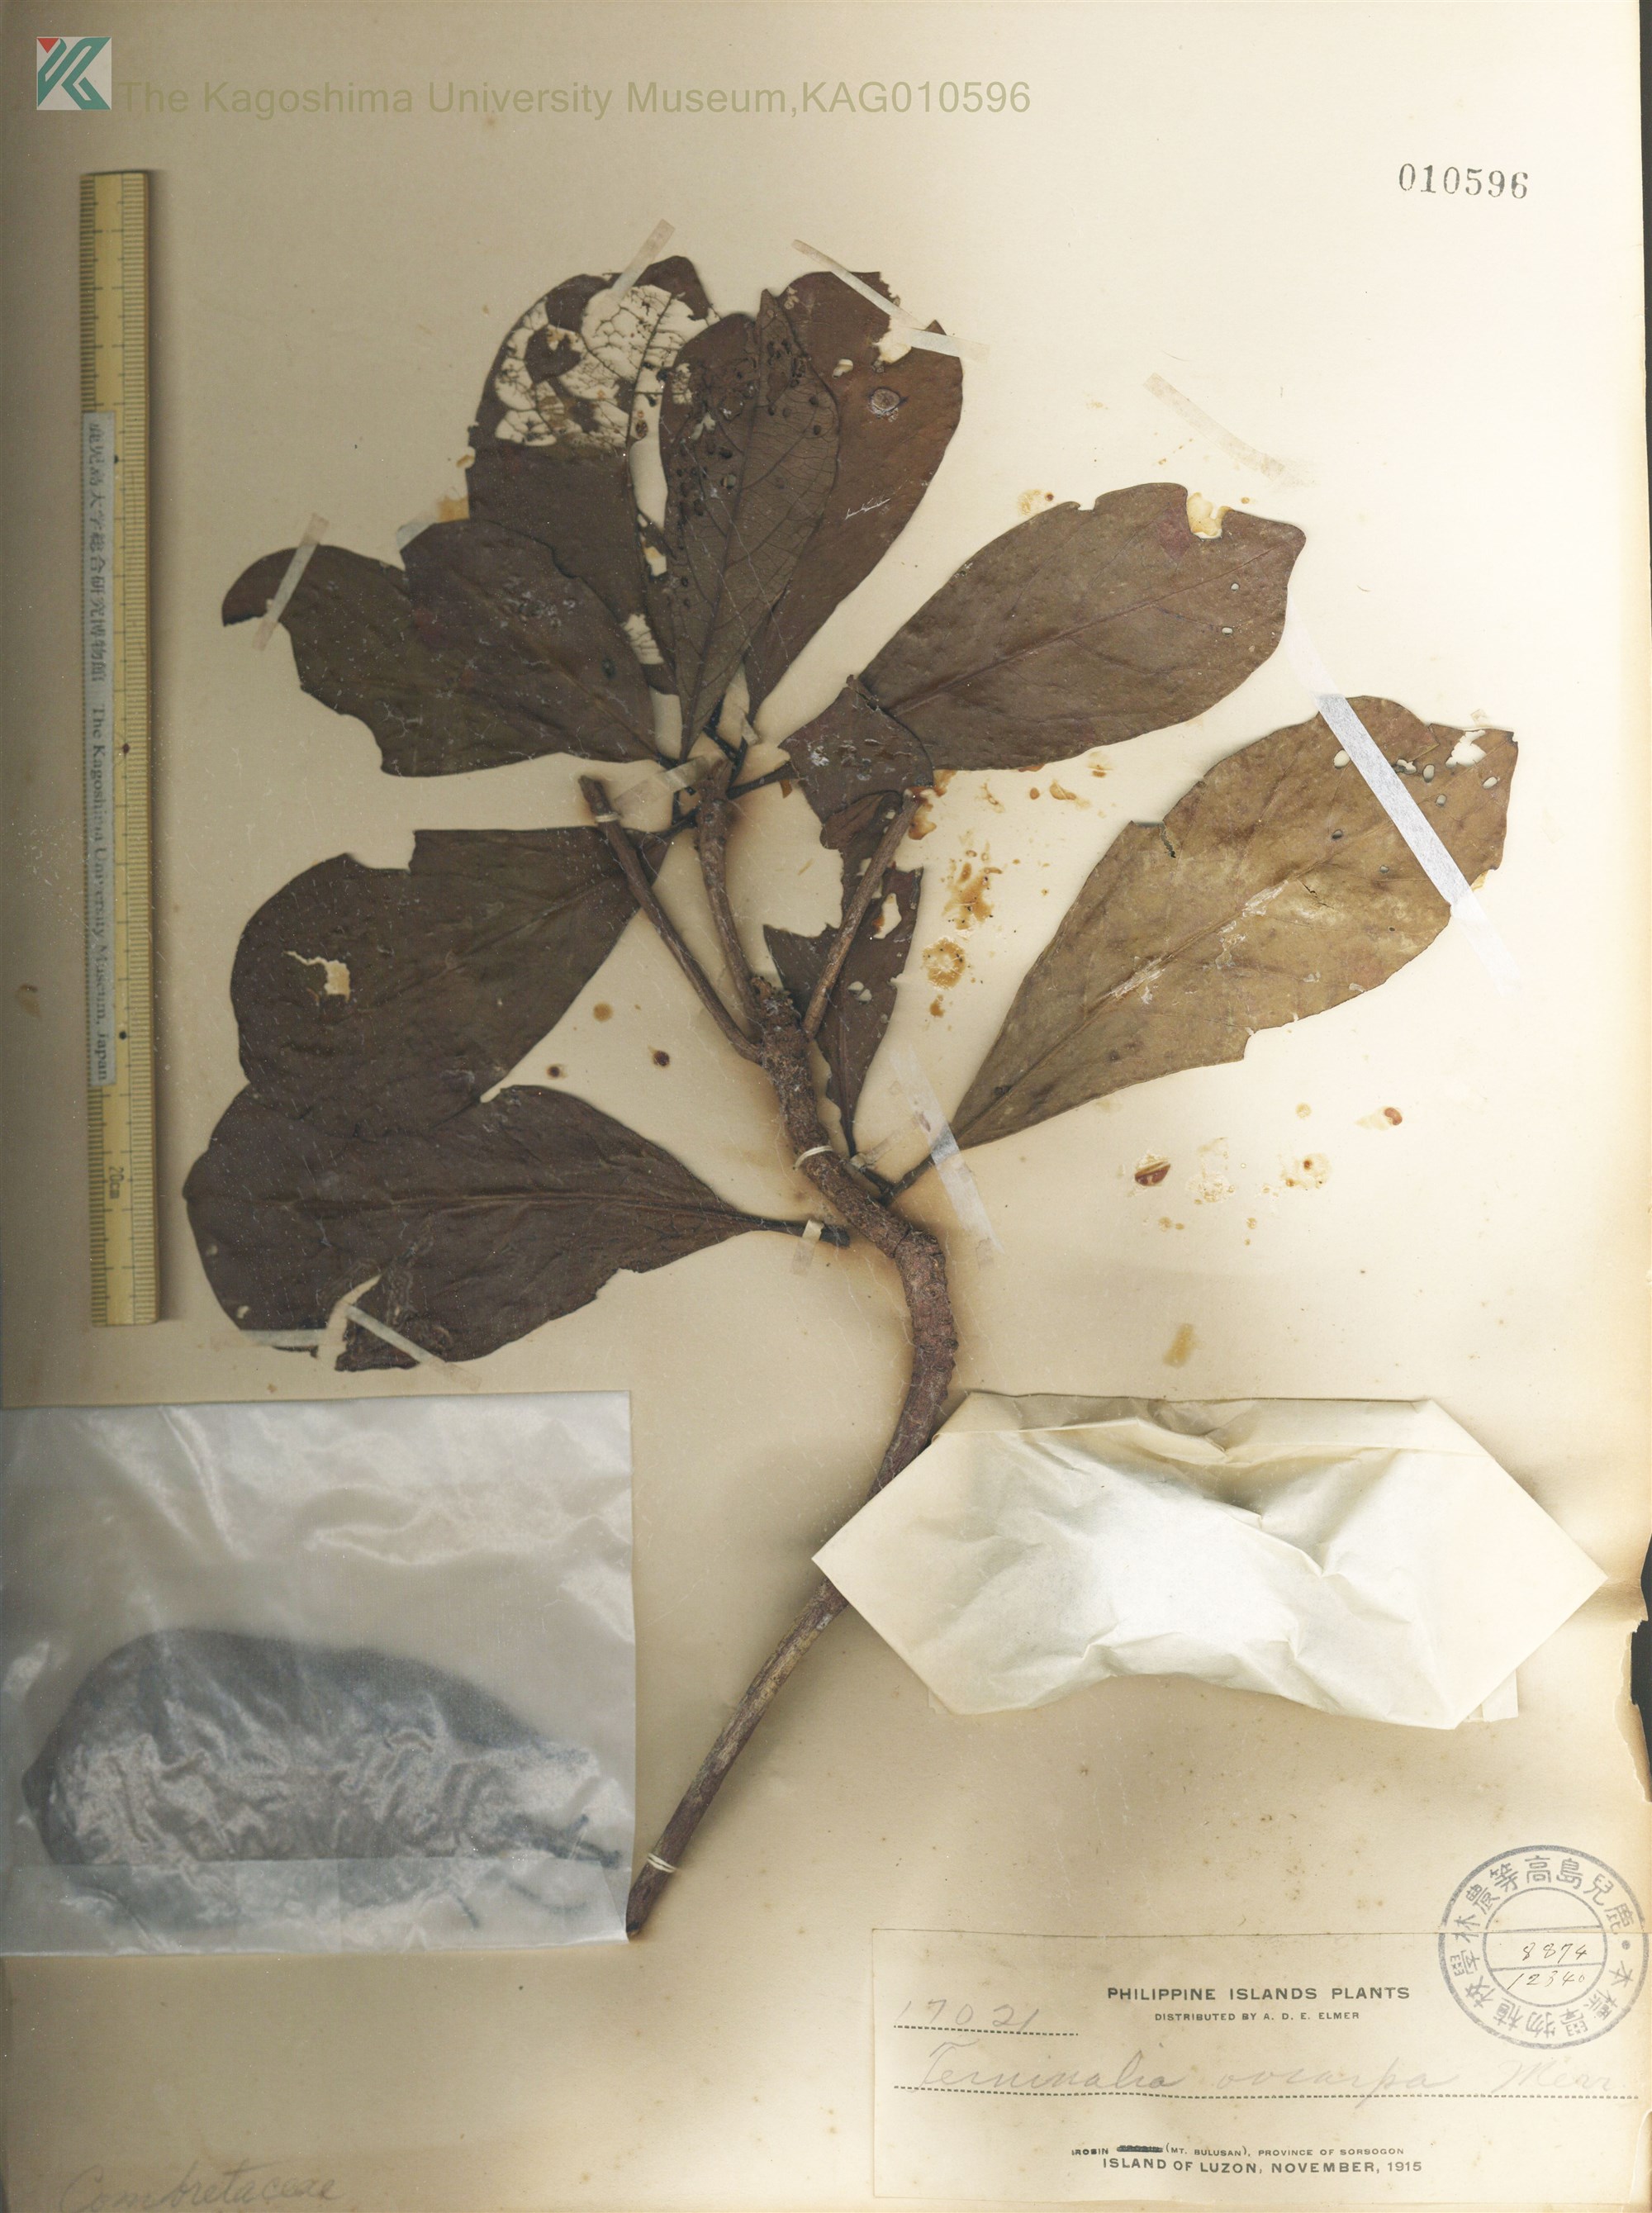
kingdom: Plantae
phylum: Tracheophyta
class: Magnoliopsida
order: Myrtales
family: Combretaceae
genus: Terminalia
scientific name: Terminalia foetidissima
